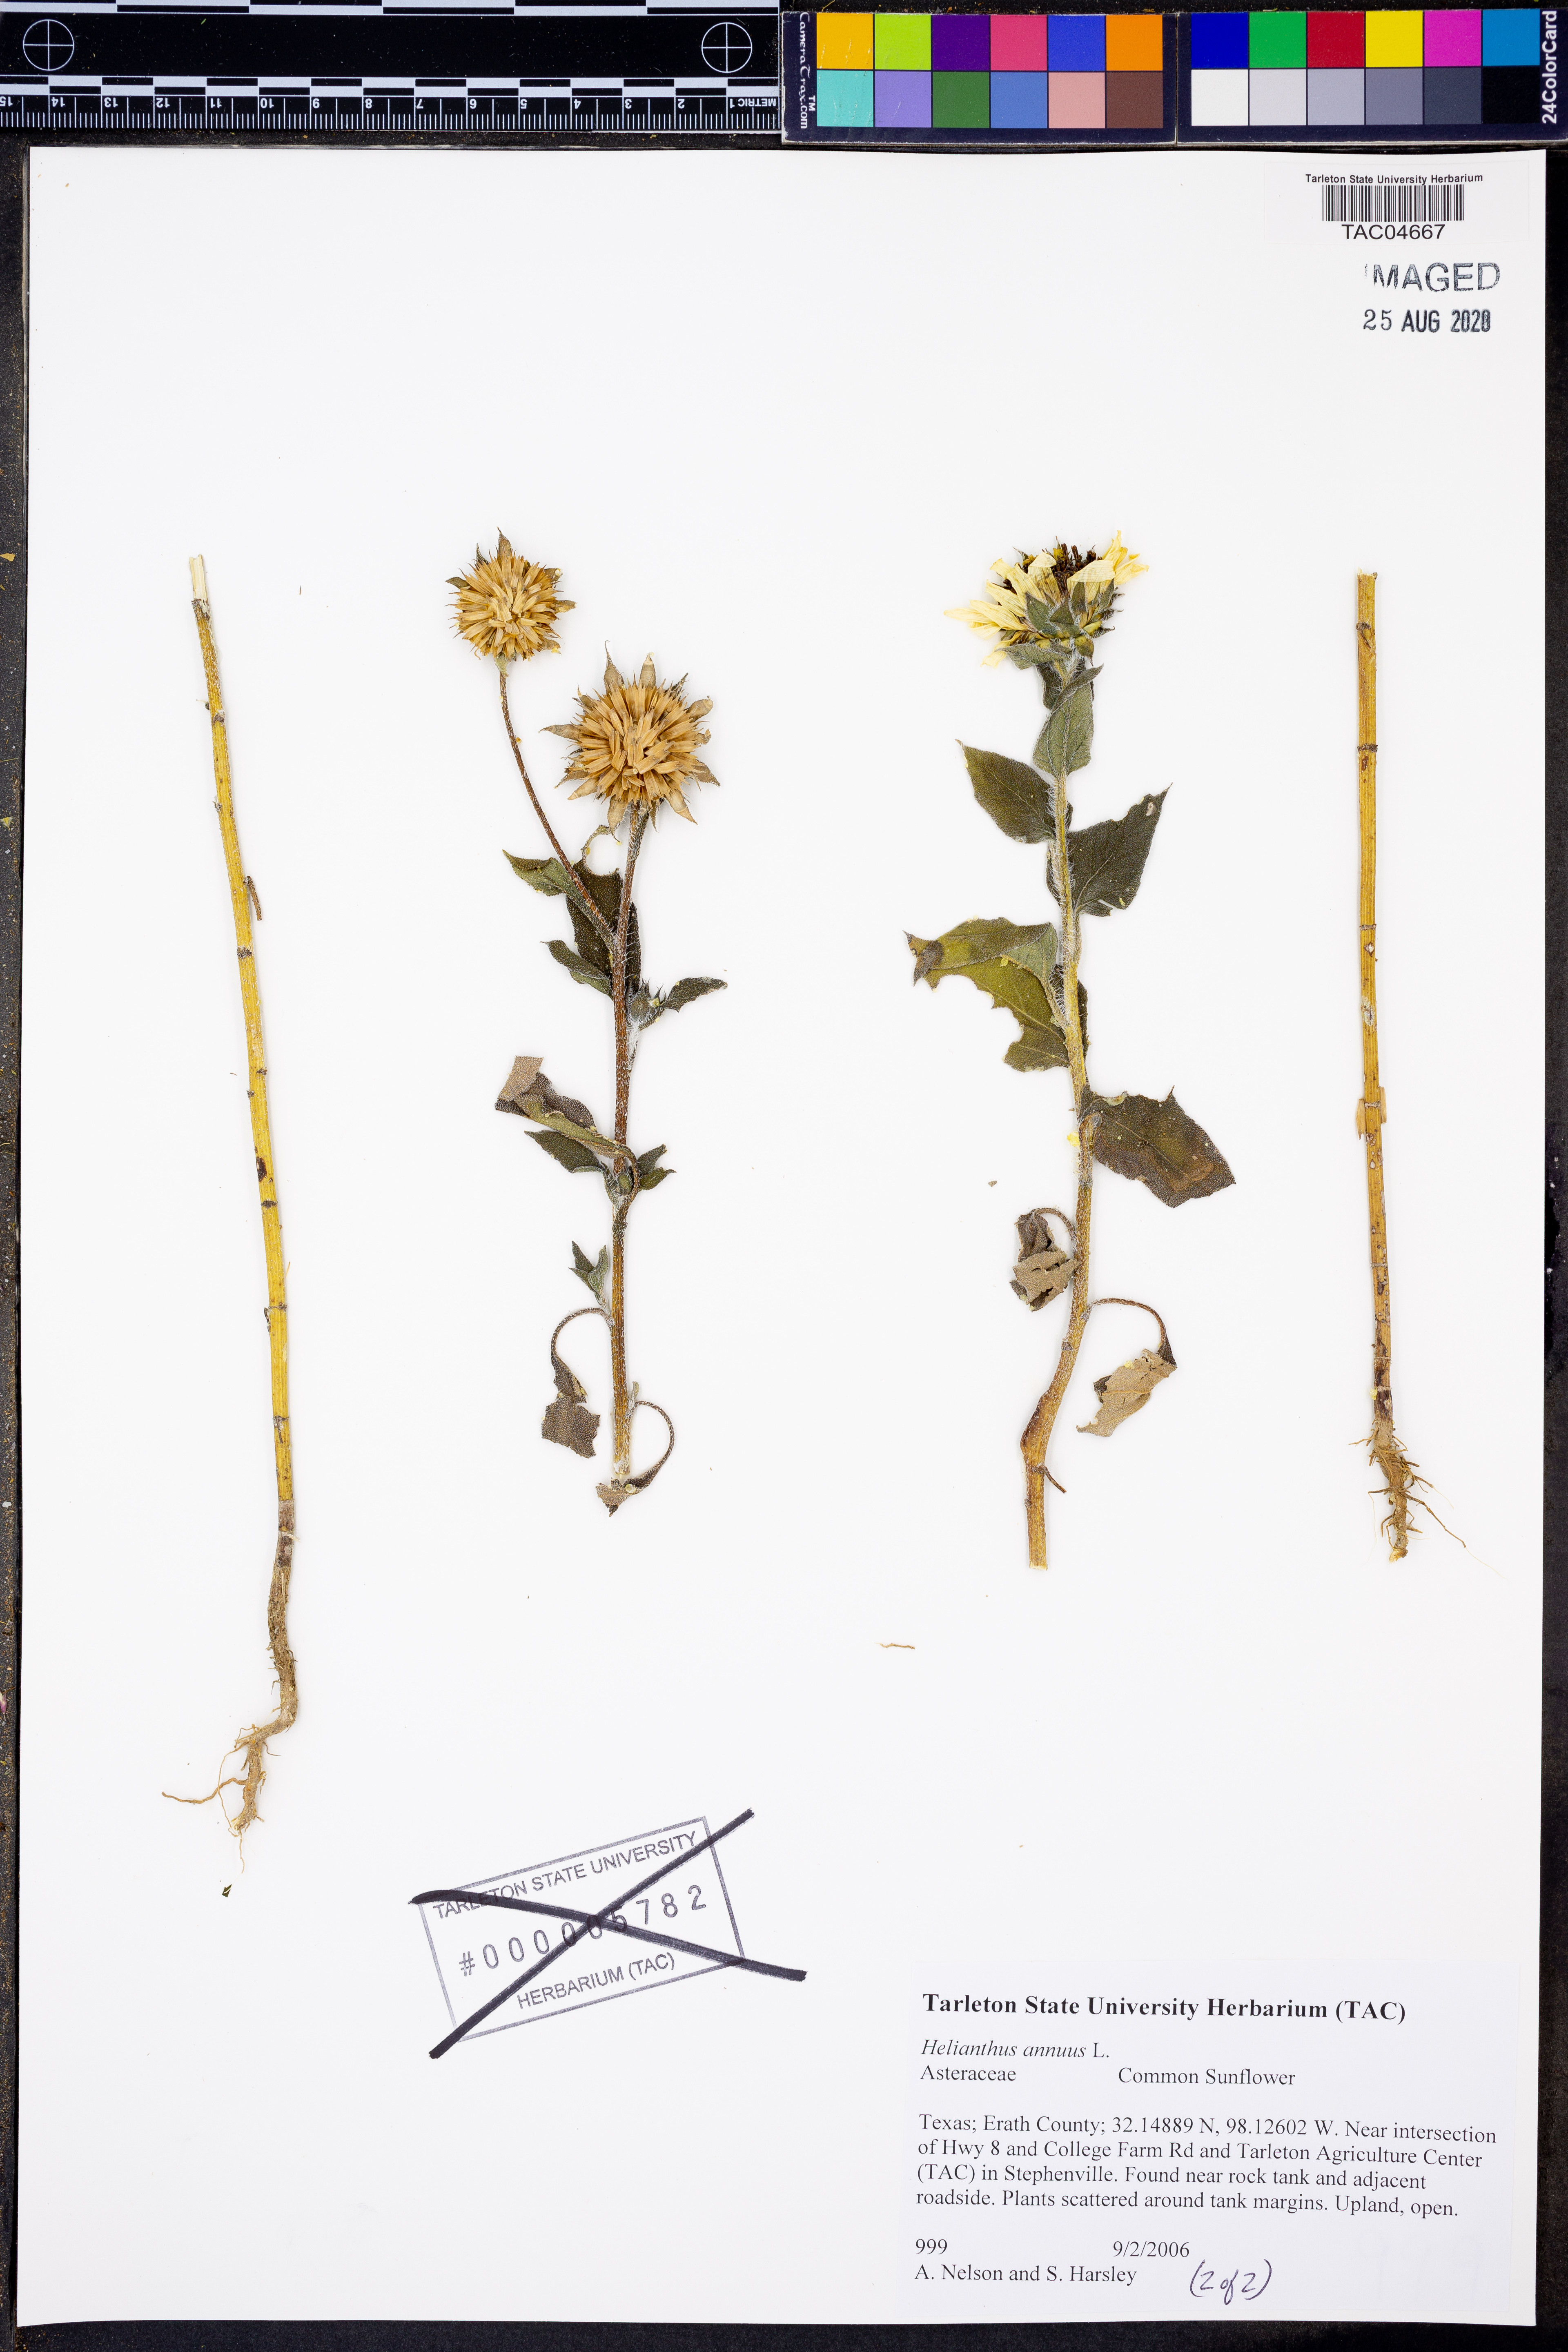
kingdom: Plantae
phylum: Tracheophyta
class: Magnoliopsida
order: Asterales
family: Asteraceae
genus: Helianthus
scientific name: Helianthus annuus
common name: Sunflower
